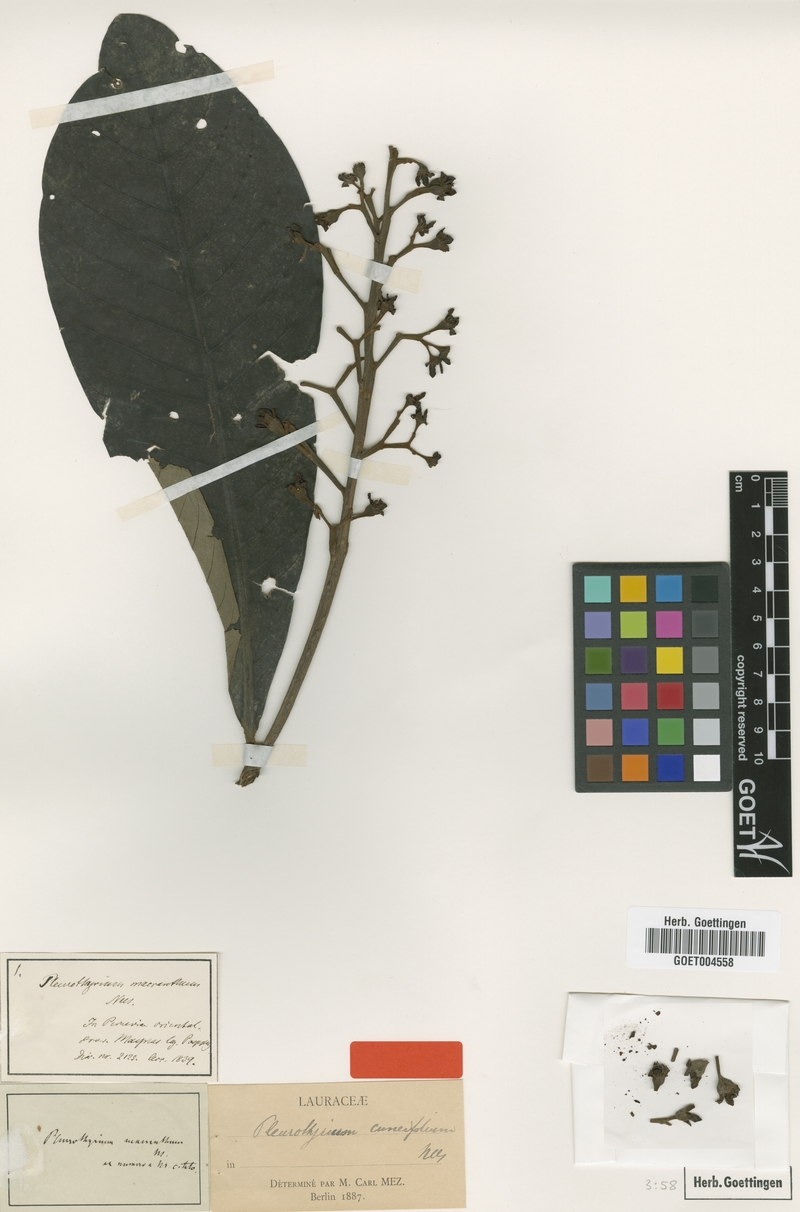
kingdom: Plantae
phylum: Tracheophyta
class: Magnoliopsida
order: Laurales
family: Lauraceae
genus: Pleurothyrium
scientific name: Pleurothyrium cuneifolium
